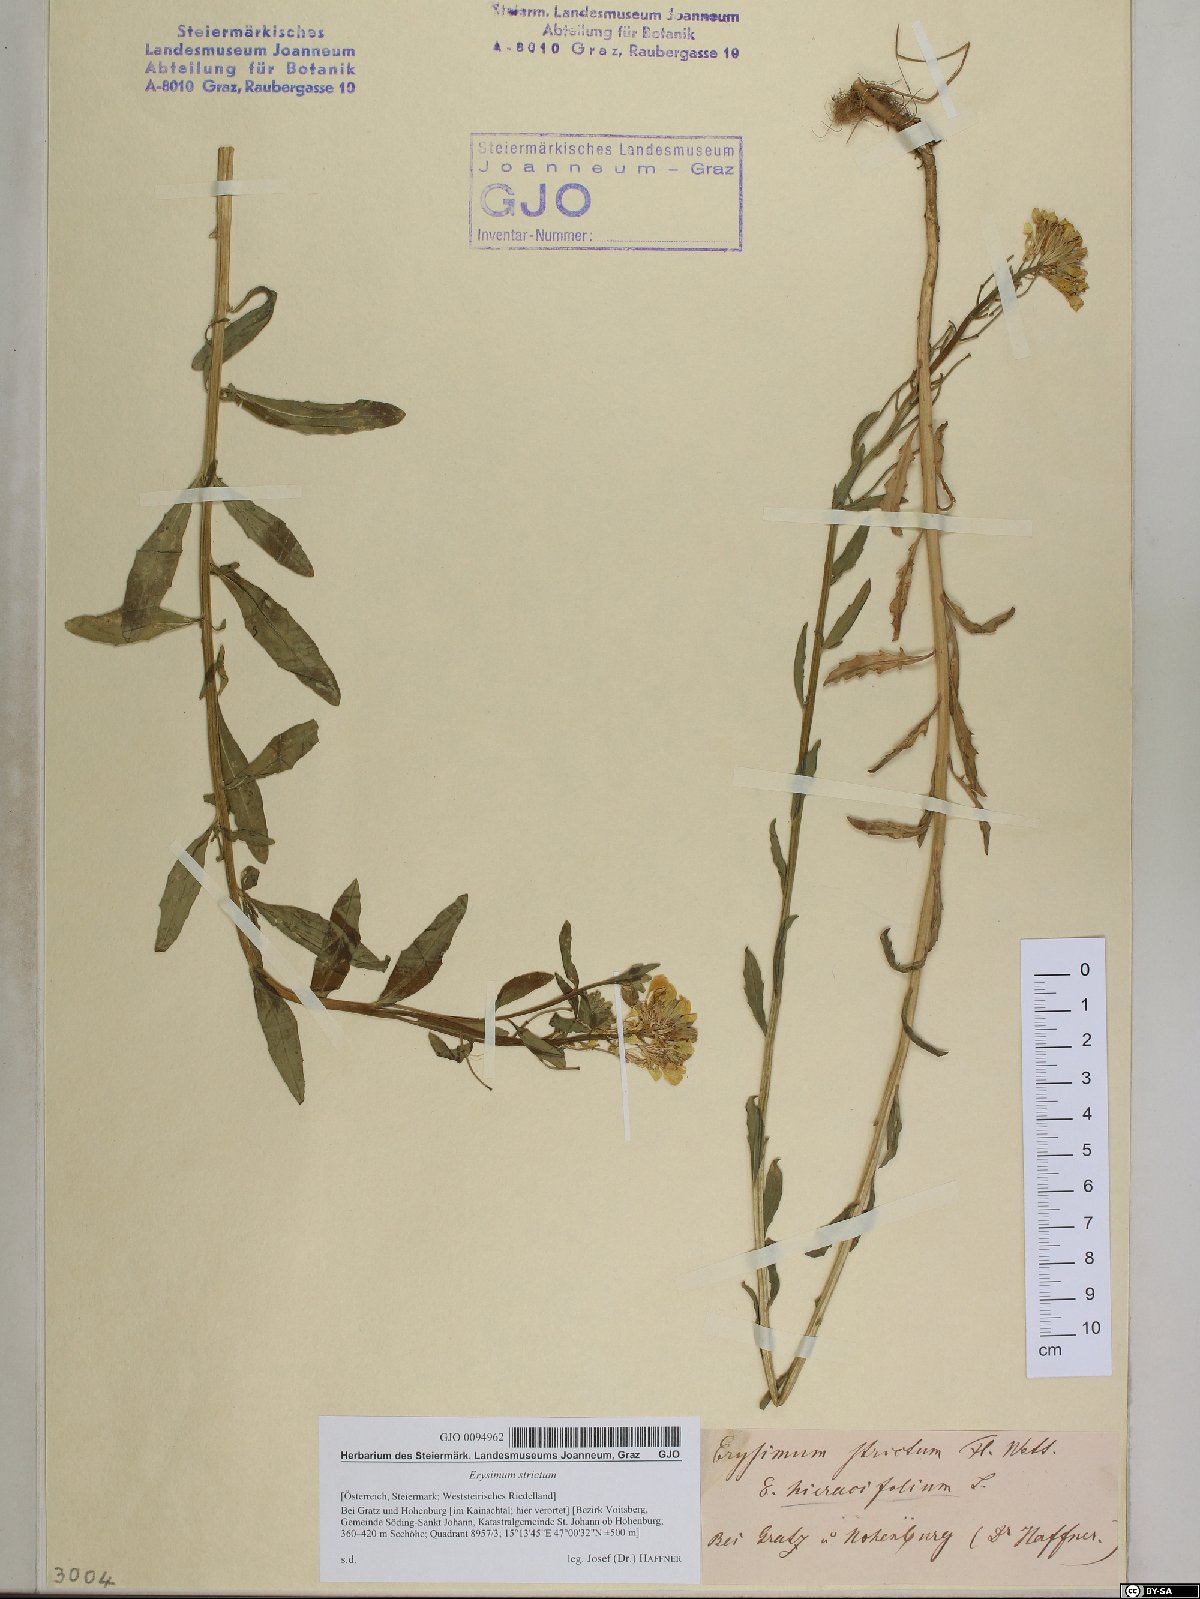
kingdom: Plantae
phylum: Tracheophyta
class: Magnoliopsida
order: Brassicales
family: Brassicaceae
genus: Erysimum
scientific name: Erysimum strictum
